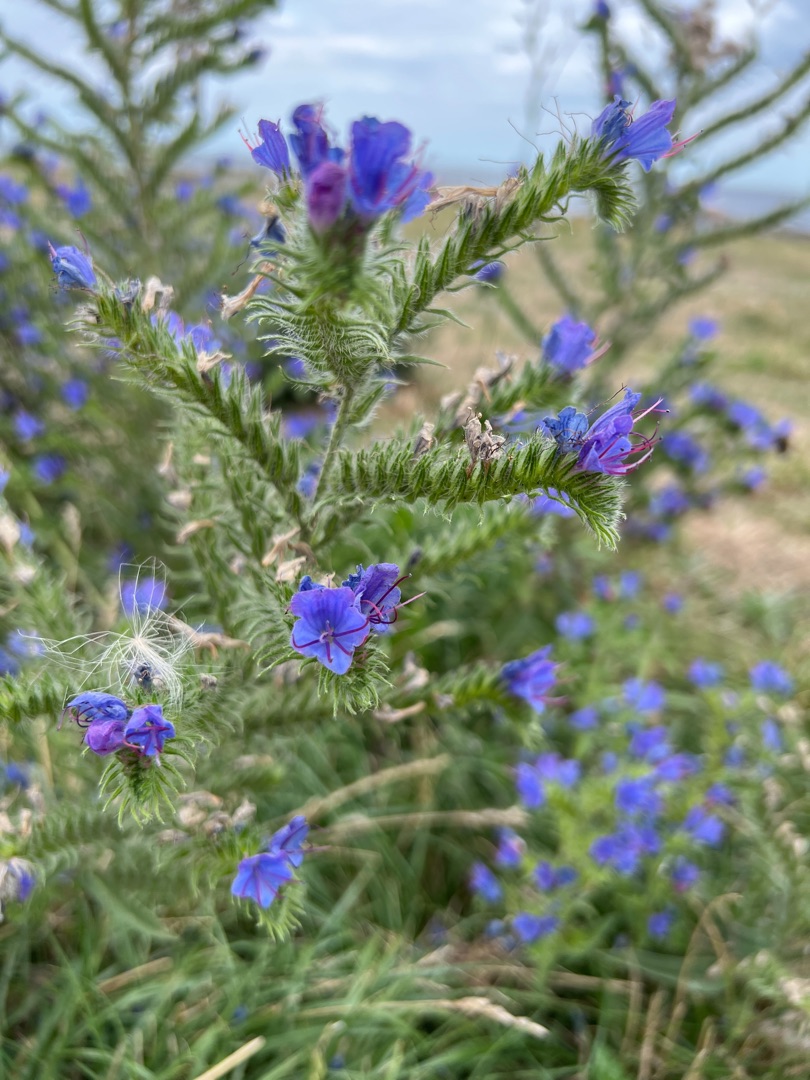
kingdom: Plantae
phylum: Tracheophyta
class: Magnoliopsida
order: Boraginales
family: Boraginaceae
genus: Echium
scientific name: Echium vulgare
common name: Slangehoved
